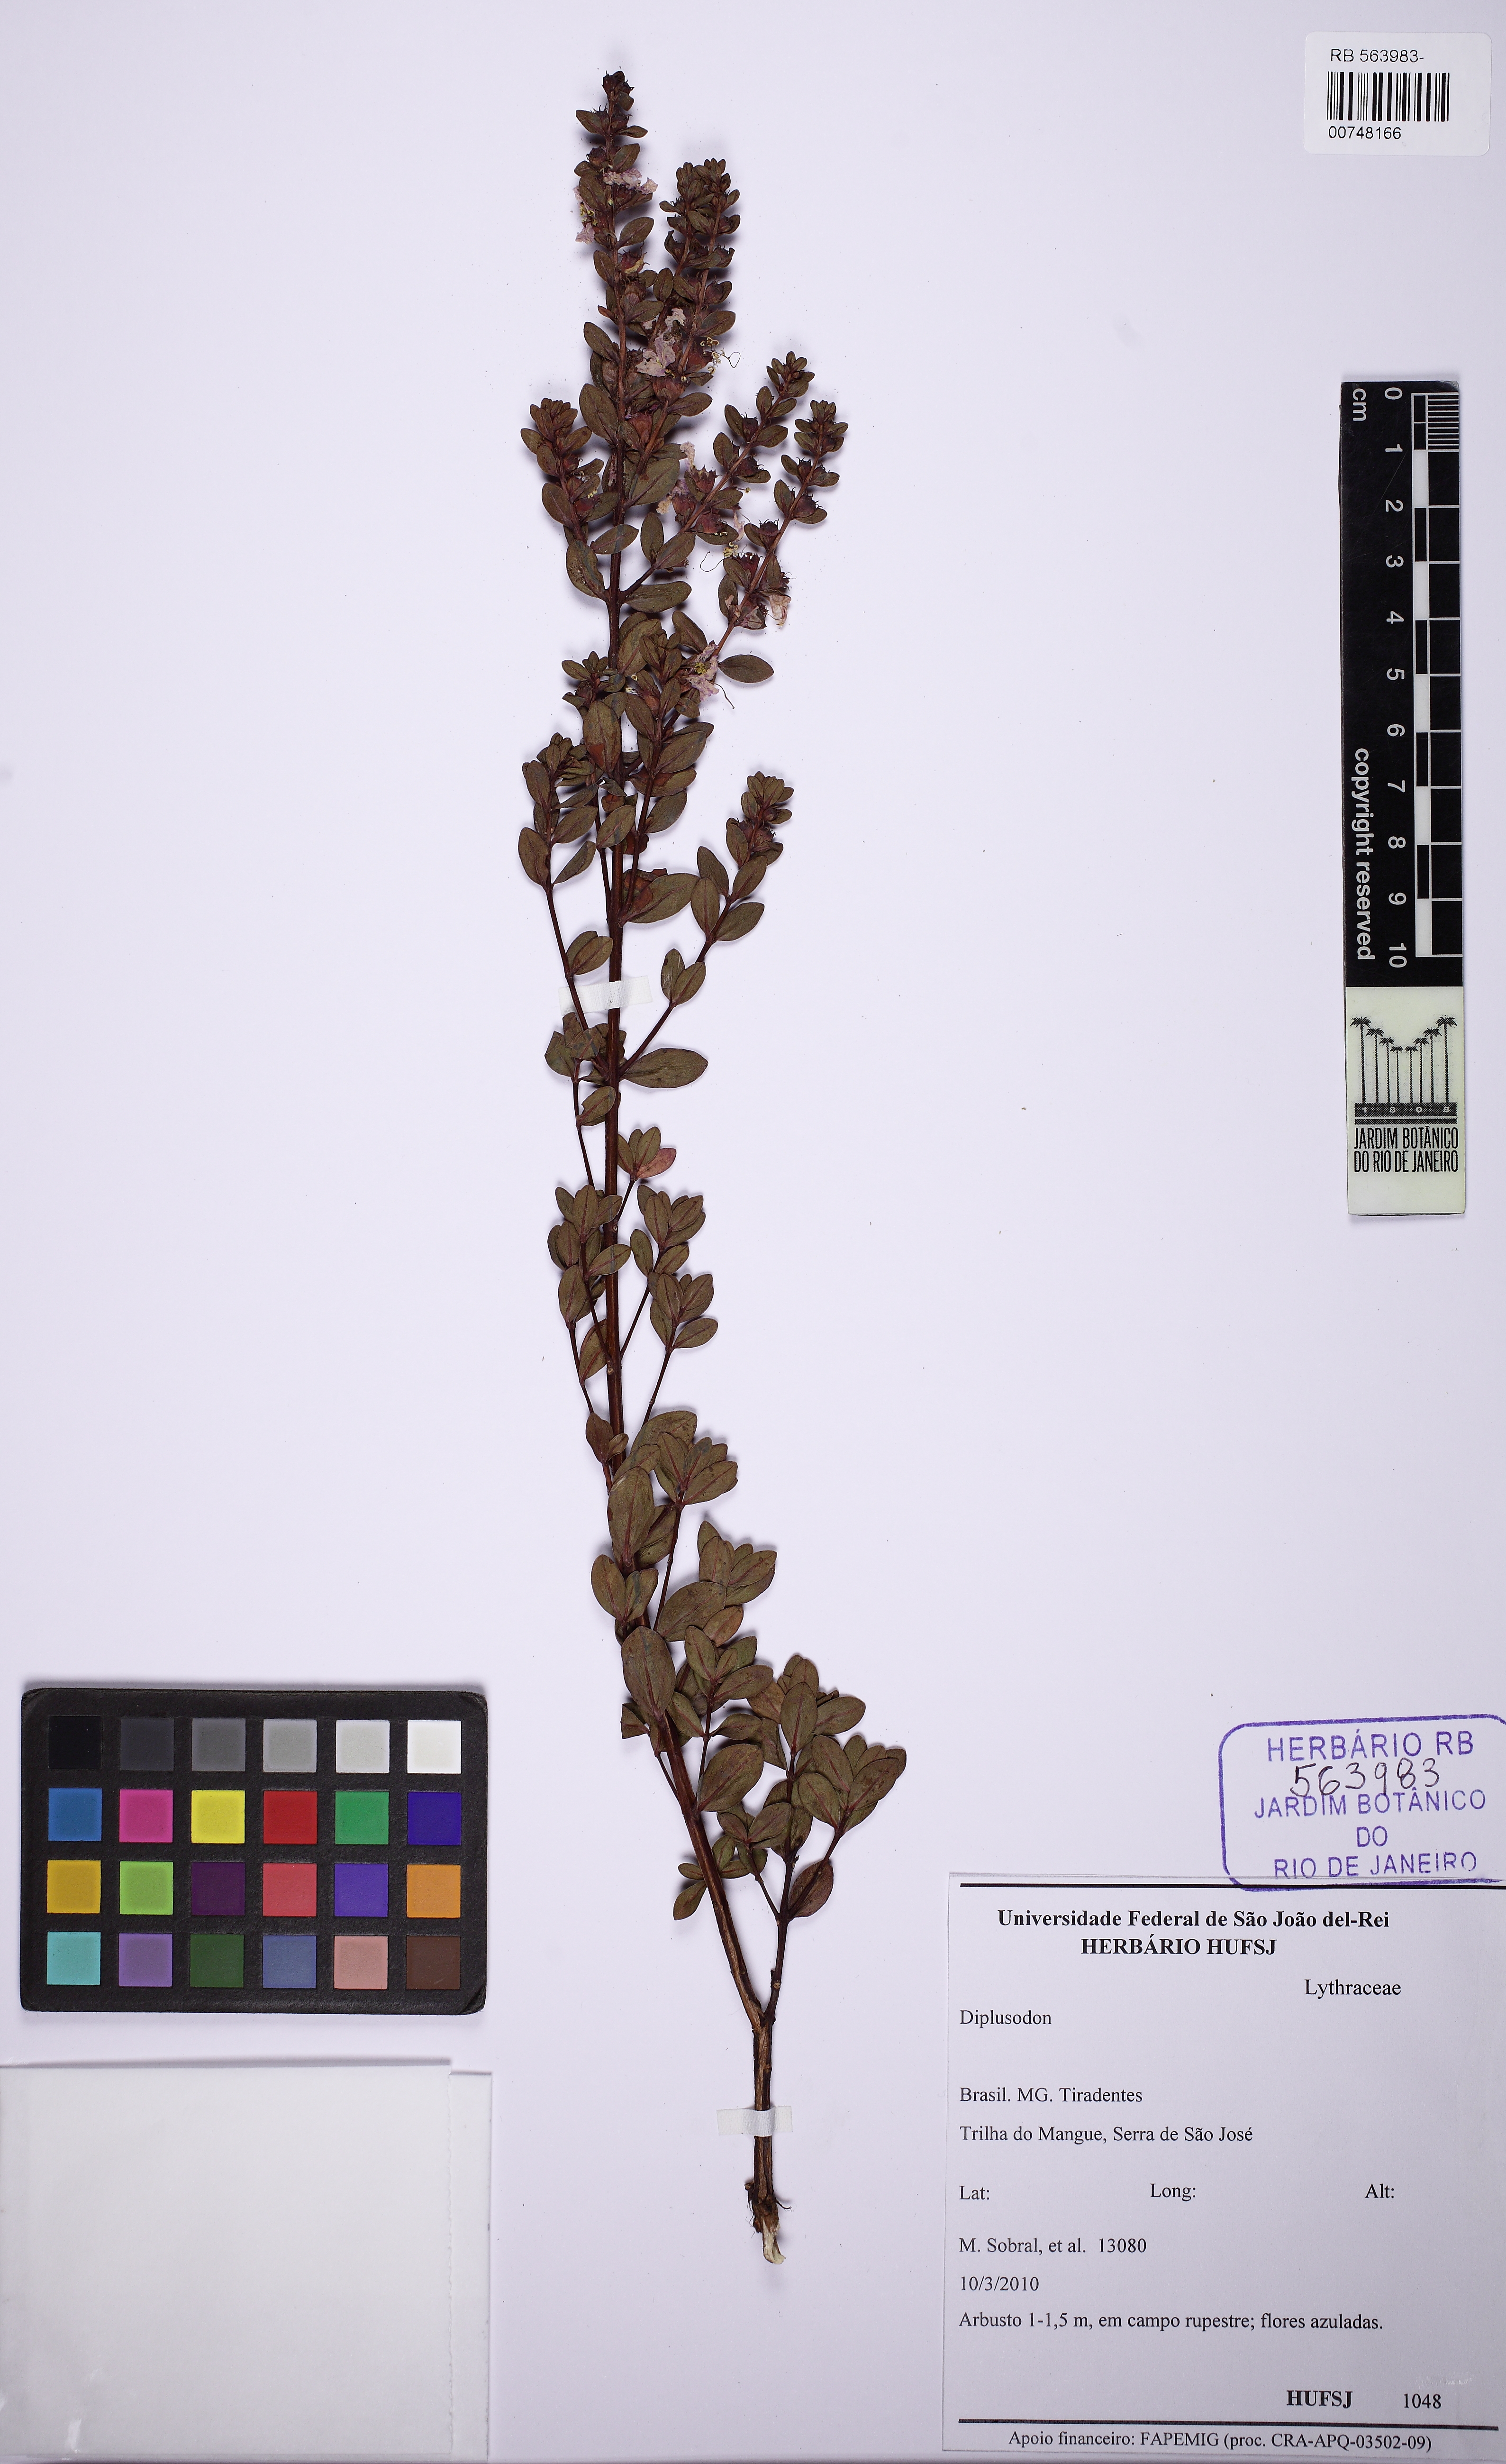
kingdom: Plantae
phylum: Tracheophyta
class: Magnoliopsida
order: Myrtales
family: Lythraceae
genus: Diplusodon
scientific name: Diplusodon buxifolius
